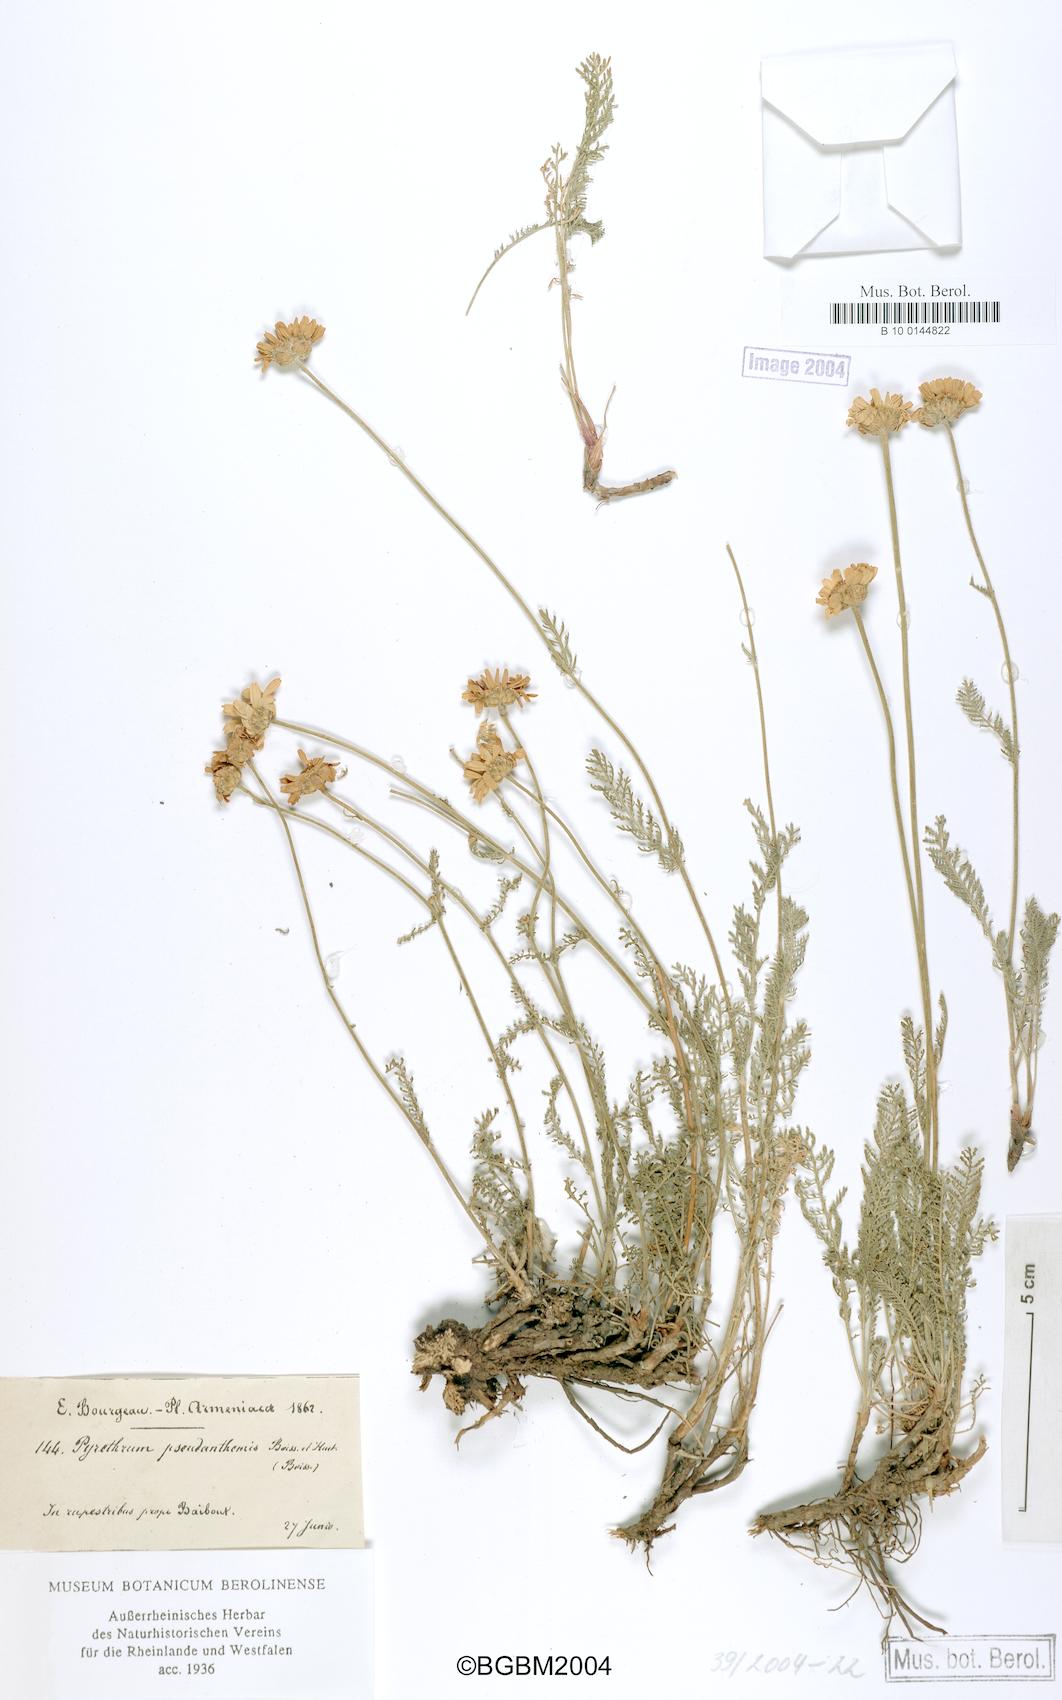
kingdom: Plantae
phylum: Tracheophyta
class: Magnoliopsida
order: Asterales
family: Asteraceae
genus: Tanacetum
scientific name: Tanacetum aucherianum
